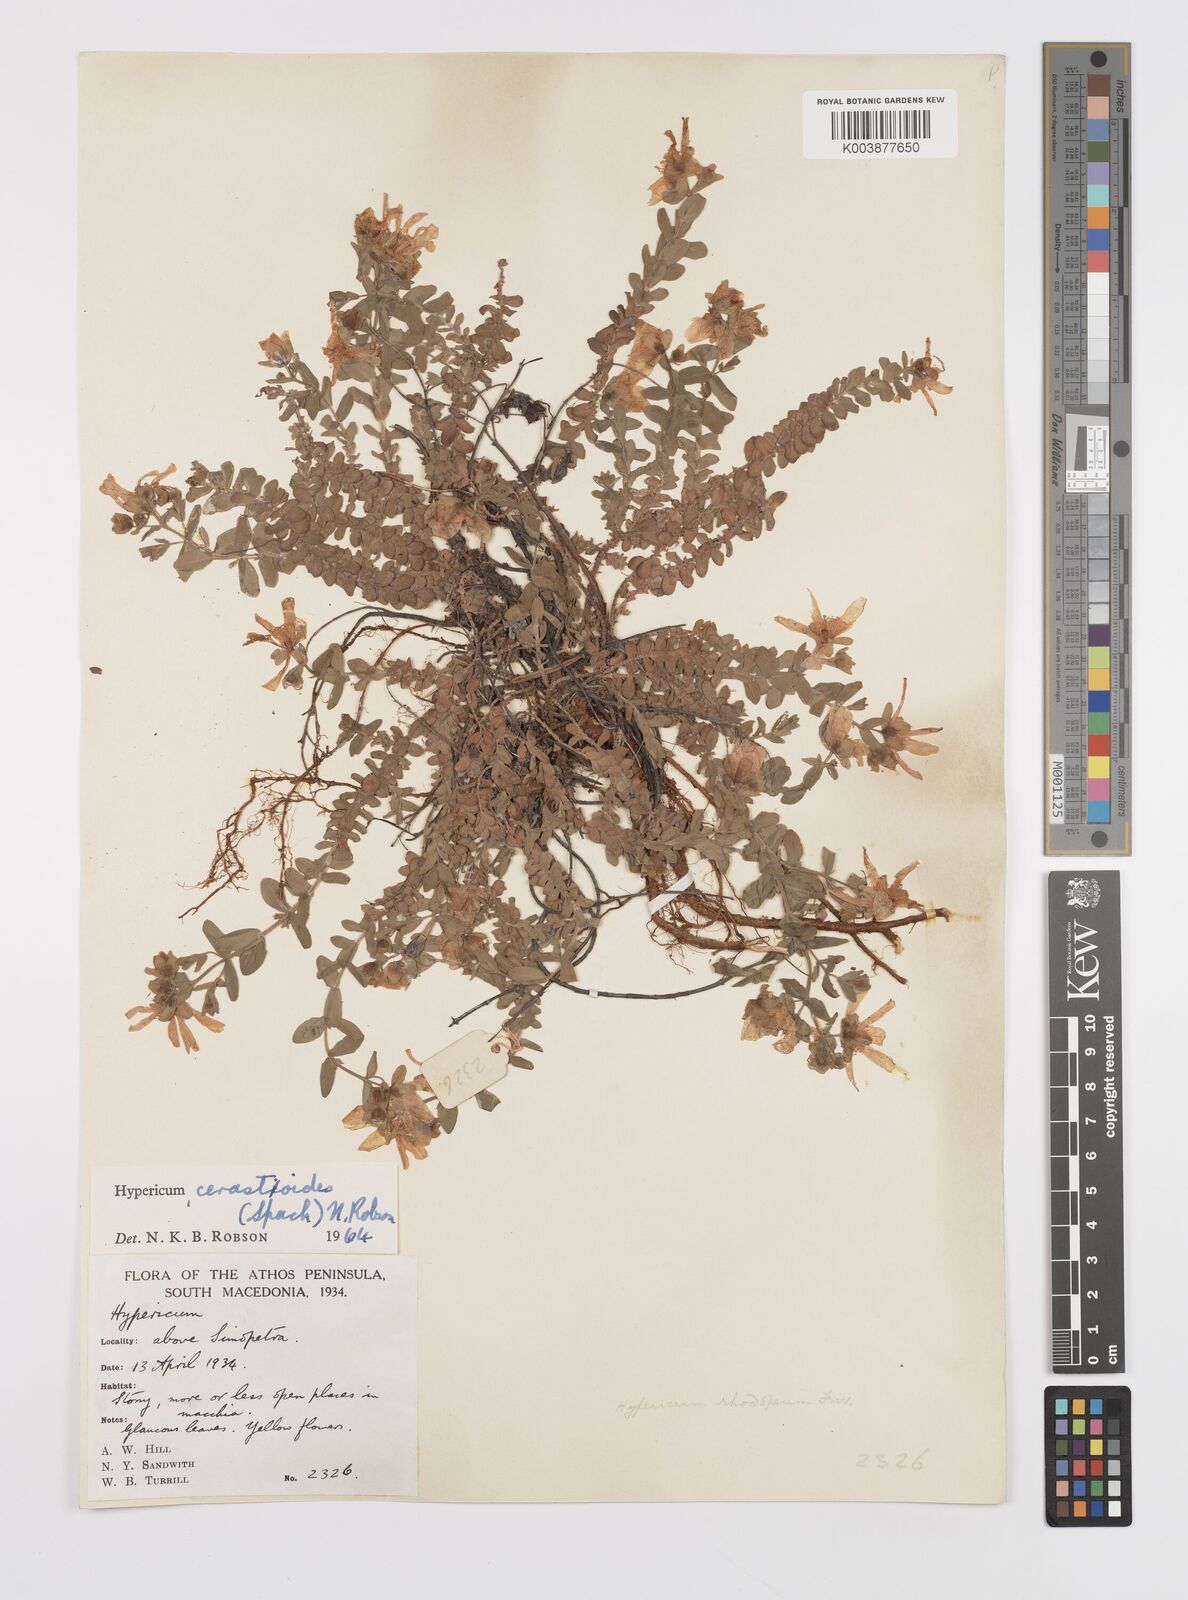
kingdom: Plantae
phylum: Tracheophyta
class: Magnoliopsida
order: Malpighiales
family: Hypericaceae
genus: Hypericum
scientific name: Hypericum cerastoides
